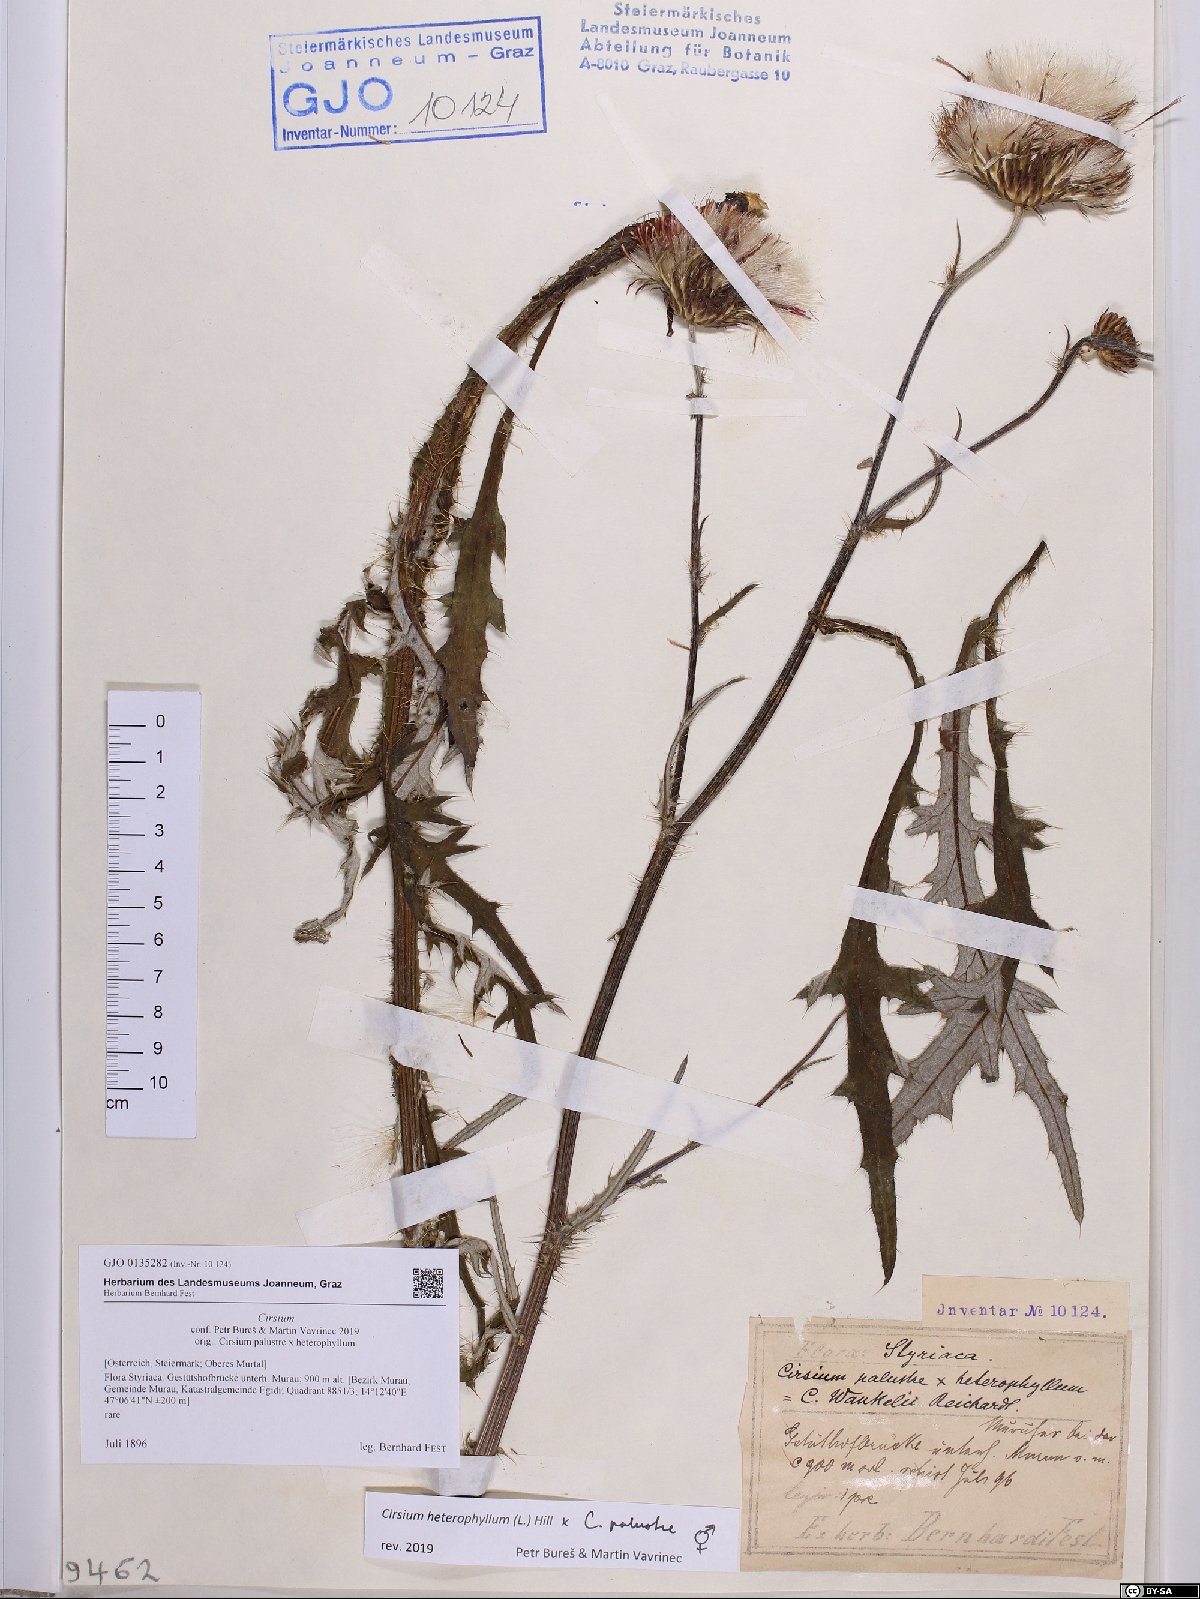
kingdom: Plantae
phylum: Tracheophyta
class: Magnoliopsida
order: Asterales
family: Asteraceae
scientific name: Asteraceae
